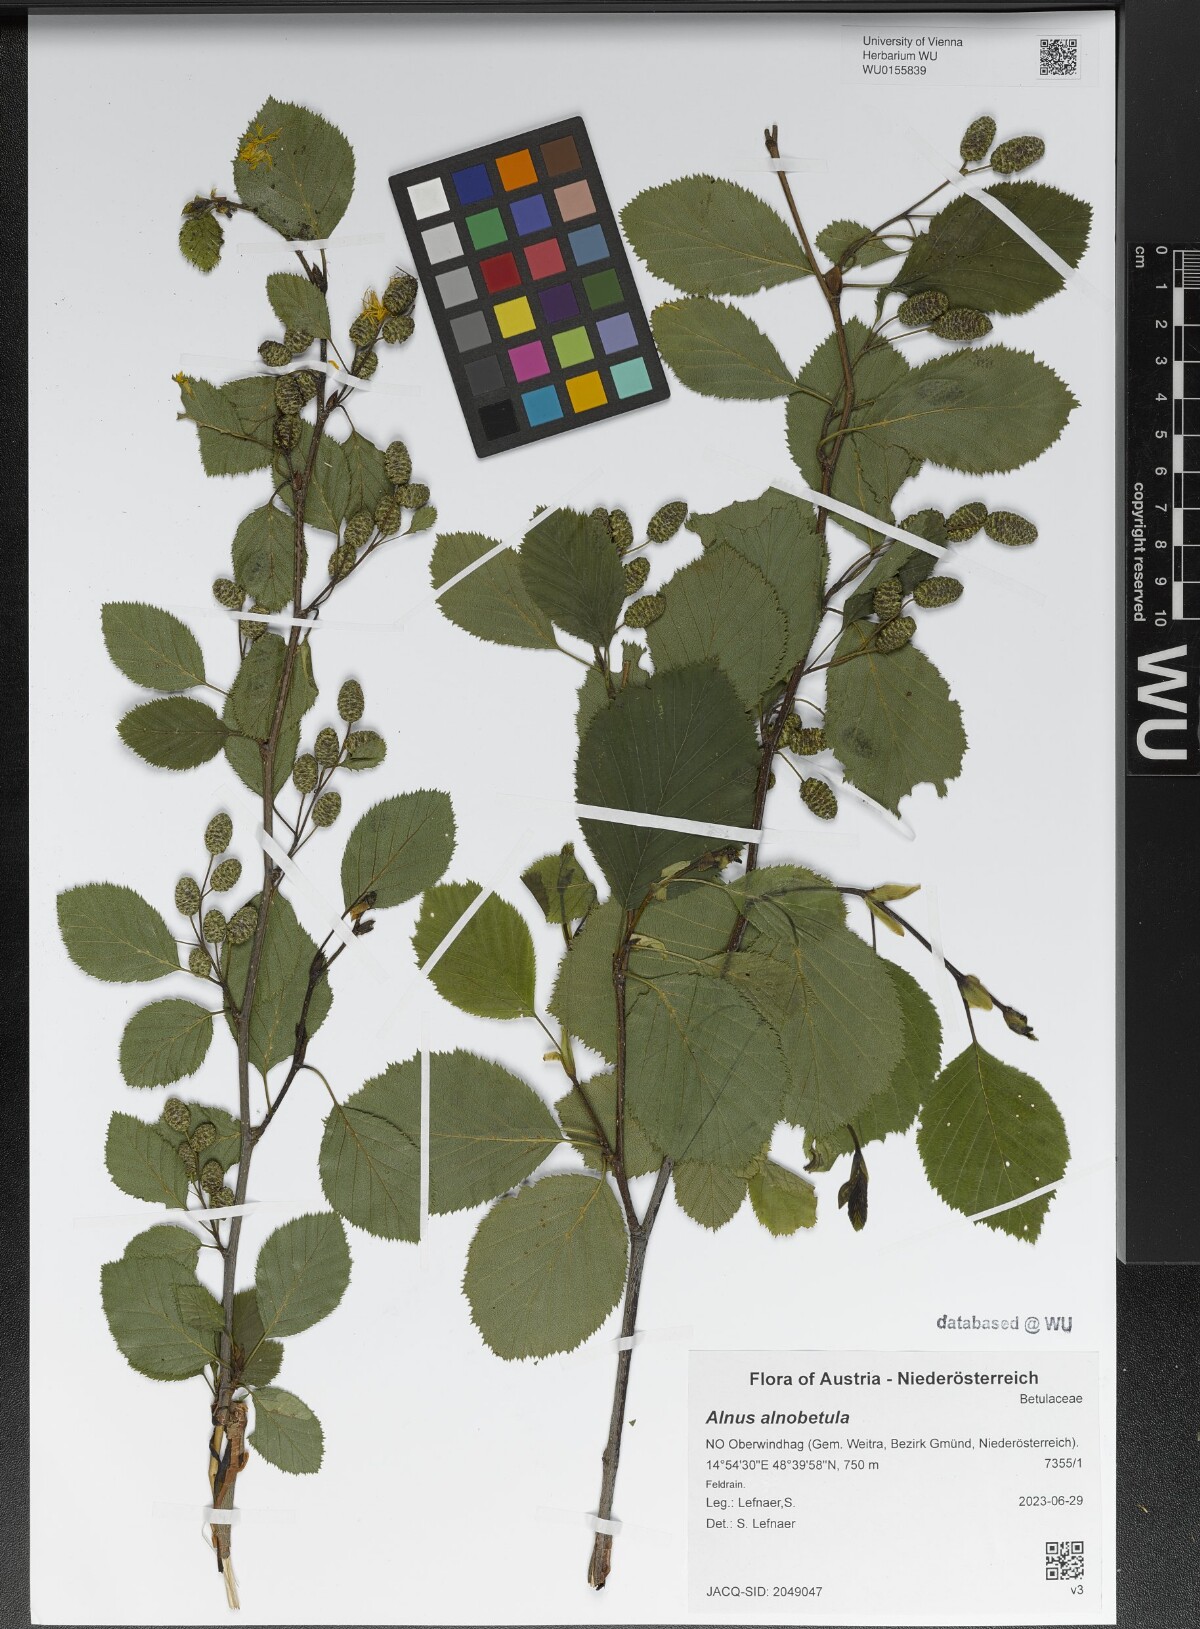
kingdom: Plantae
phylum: Tracheophyta
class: Magnoliopsida
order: Fagales
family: Betulaceae
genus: Alnus
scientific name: Alnus alnobetula
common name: Green alder
